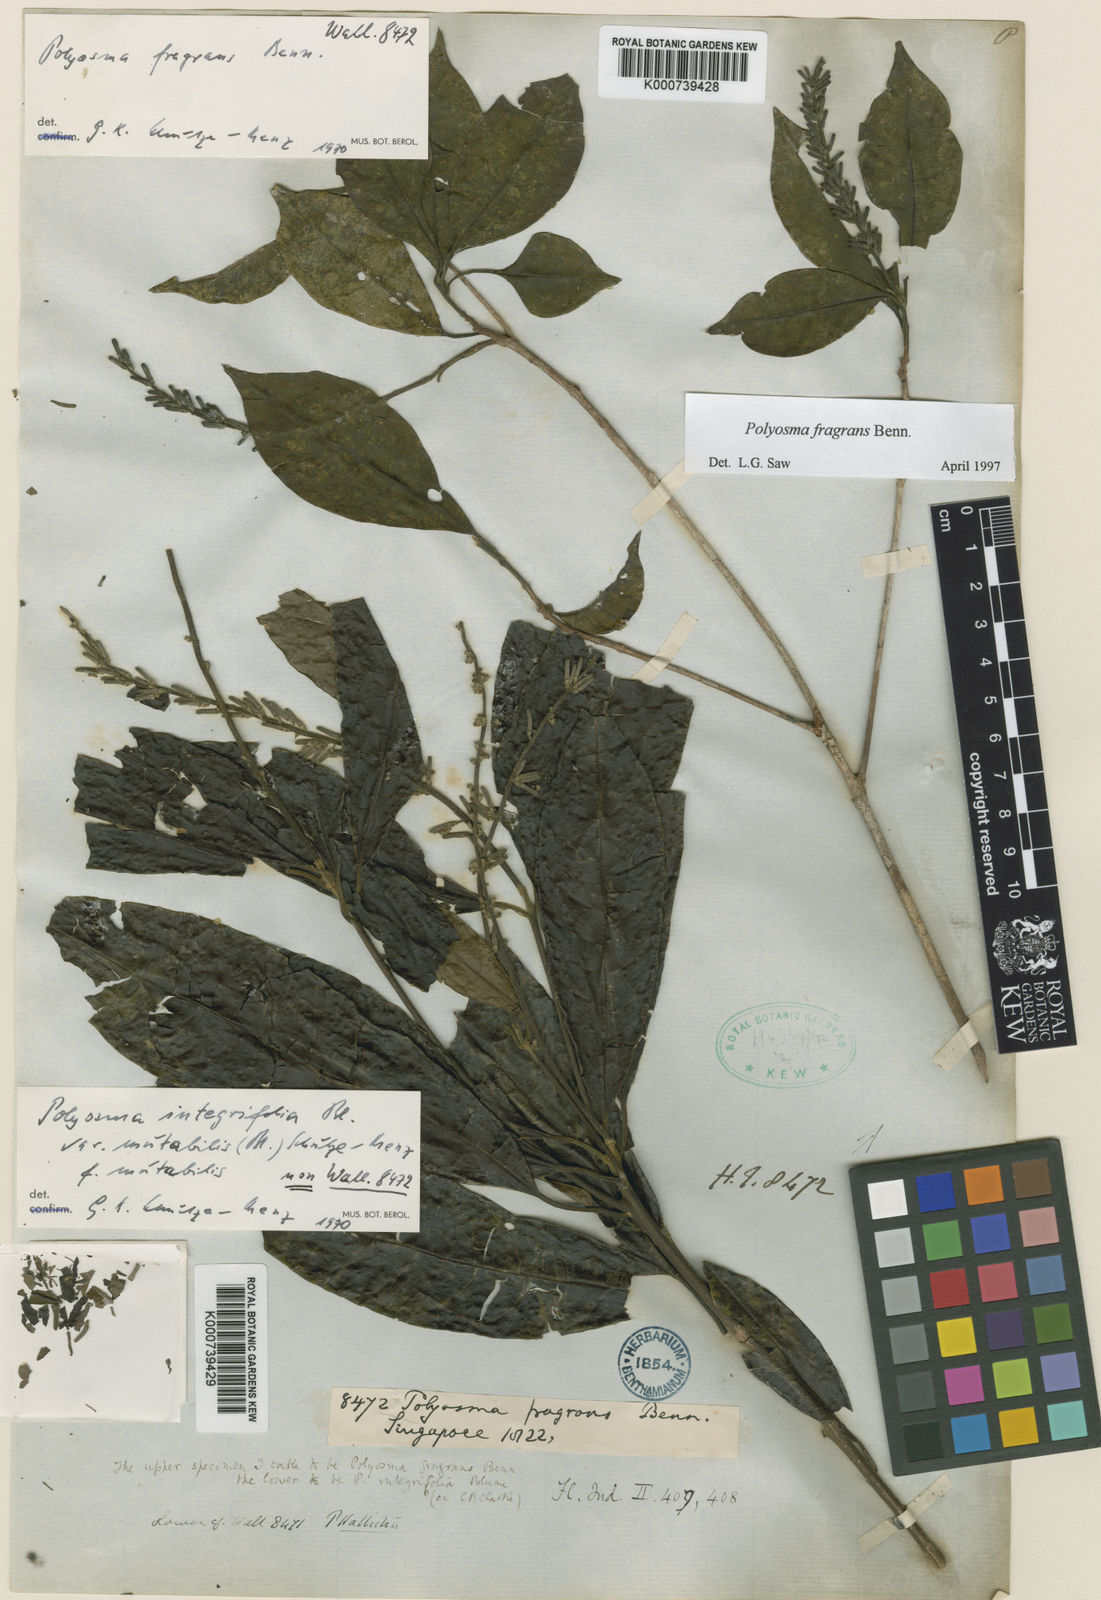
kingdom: Plantae
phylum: Tracheophyta
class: Magnoliopsida
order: Escalloniales
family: Escalloniaceae
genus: Polyosma
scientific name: Polyosma fragrans
